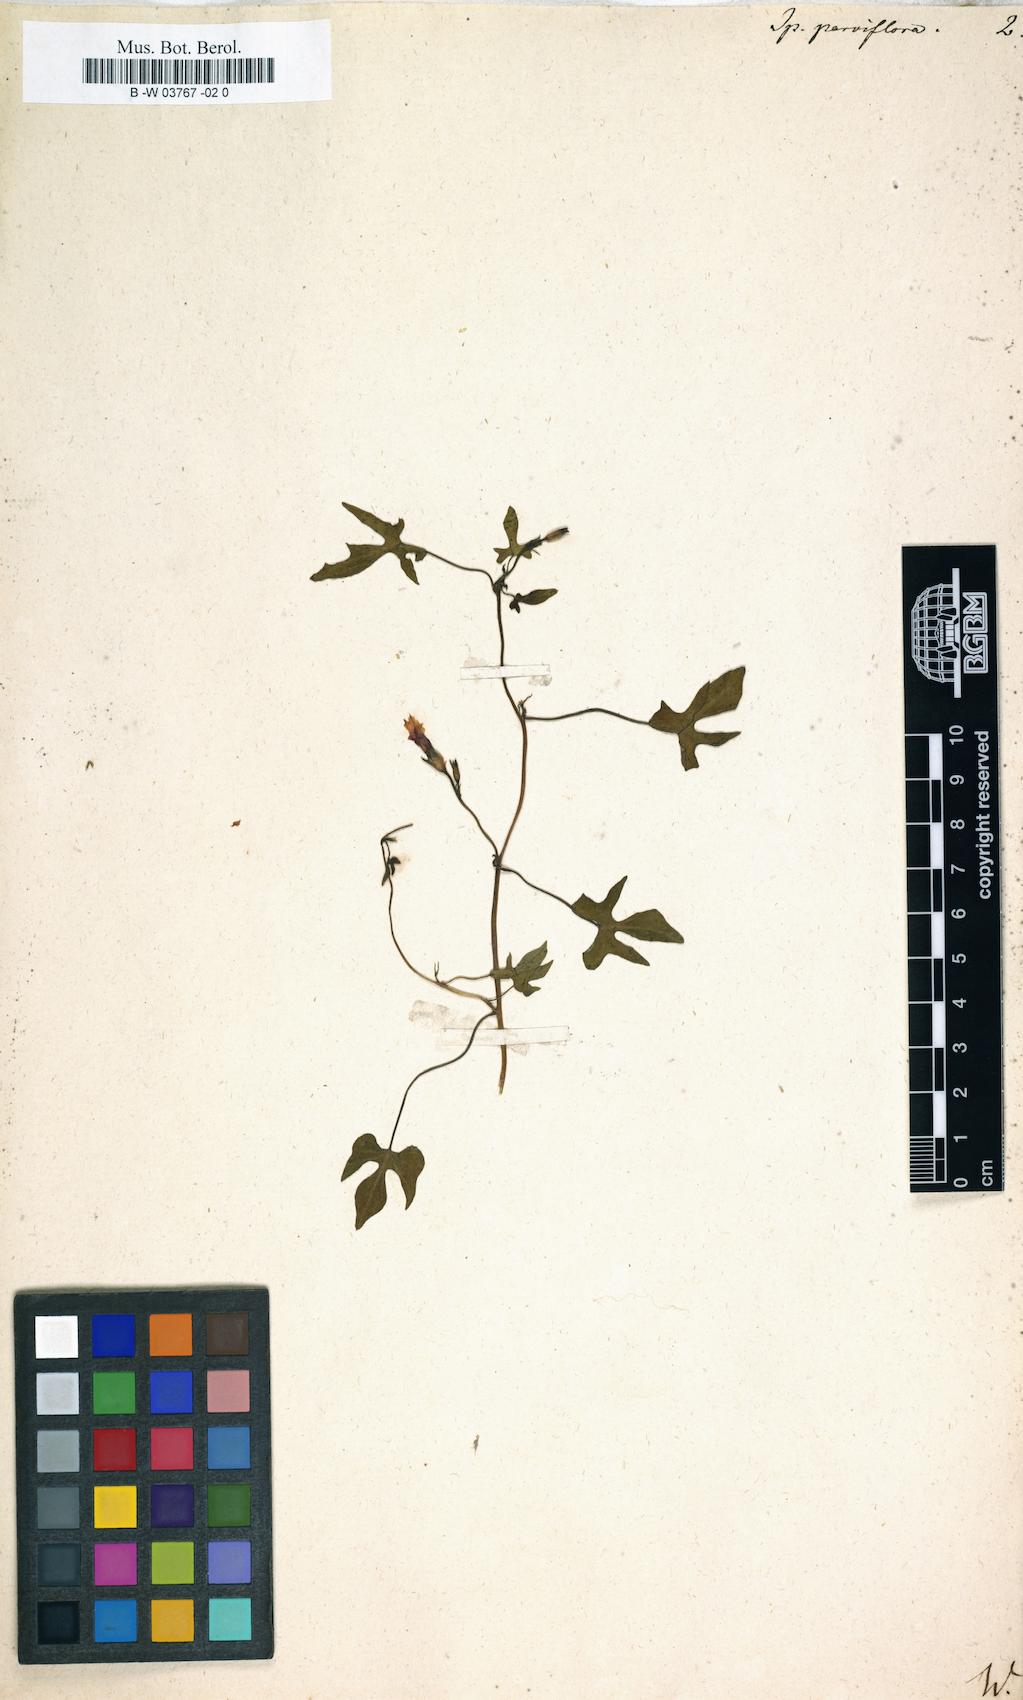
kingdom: Plantae
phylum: Tracheophyta
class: Magnoliopsida
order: Solanales
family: Convolvulaceae
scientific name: Convolvulaceae
